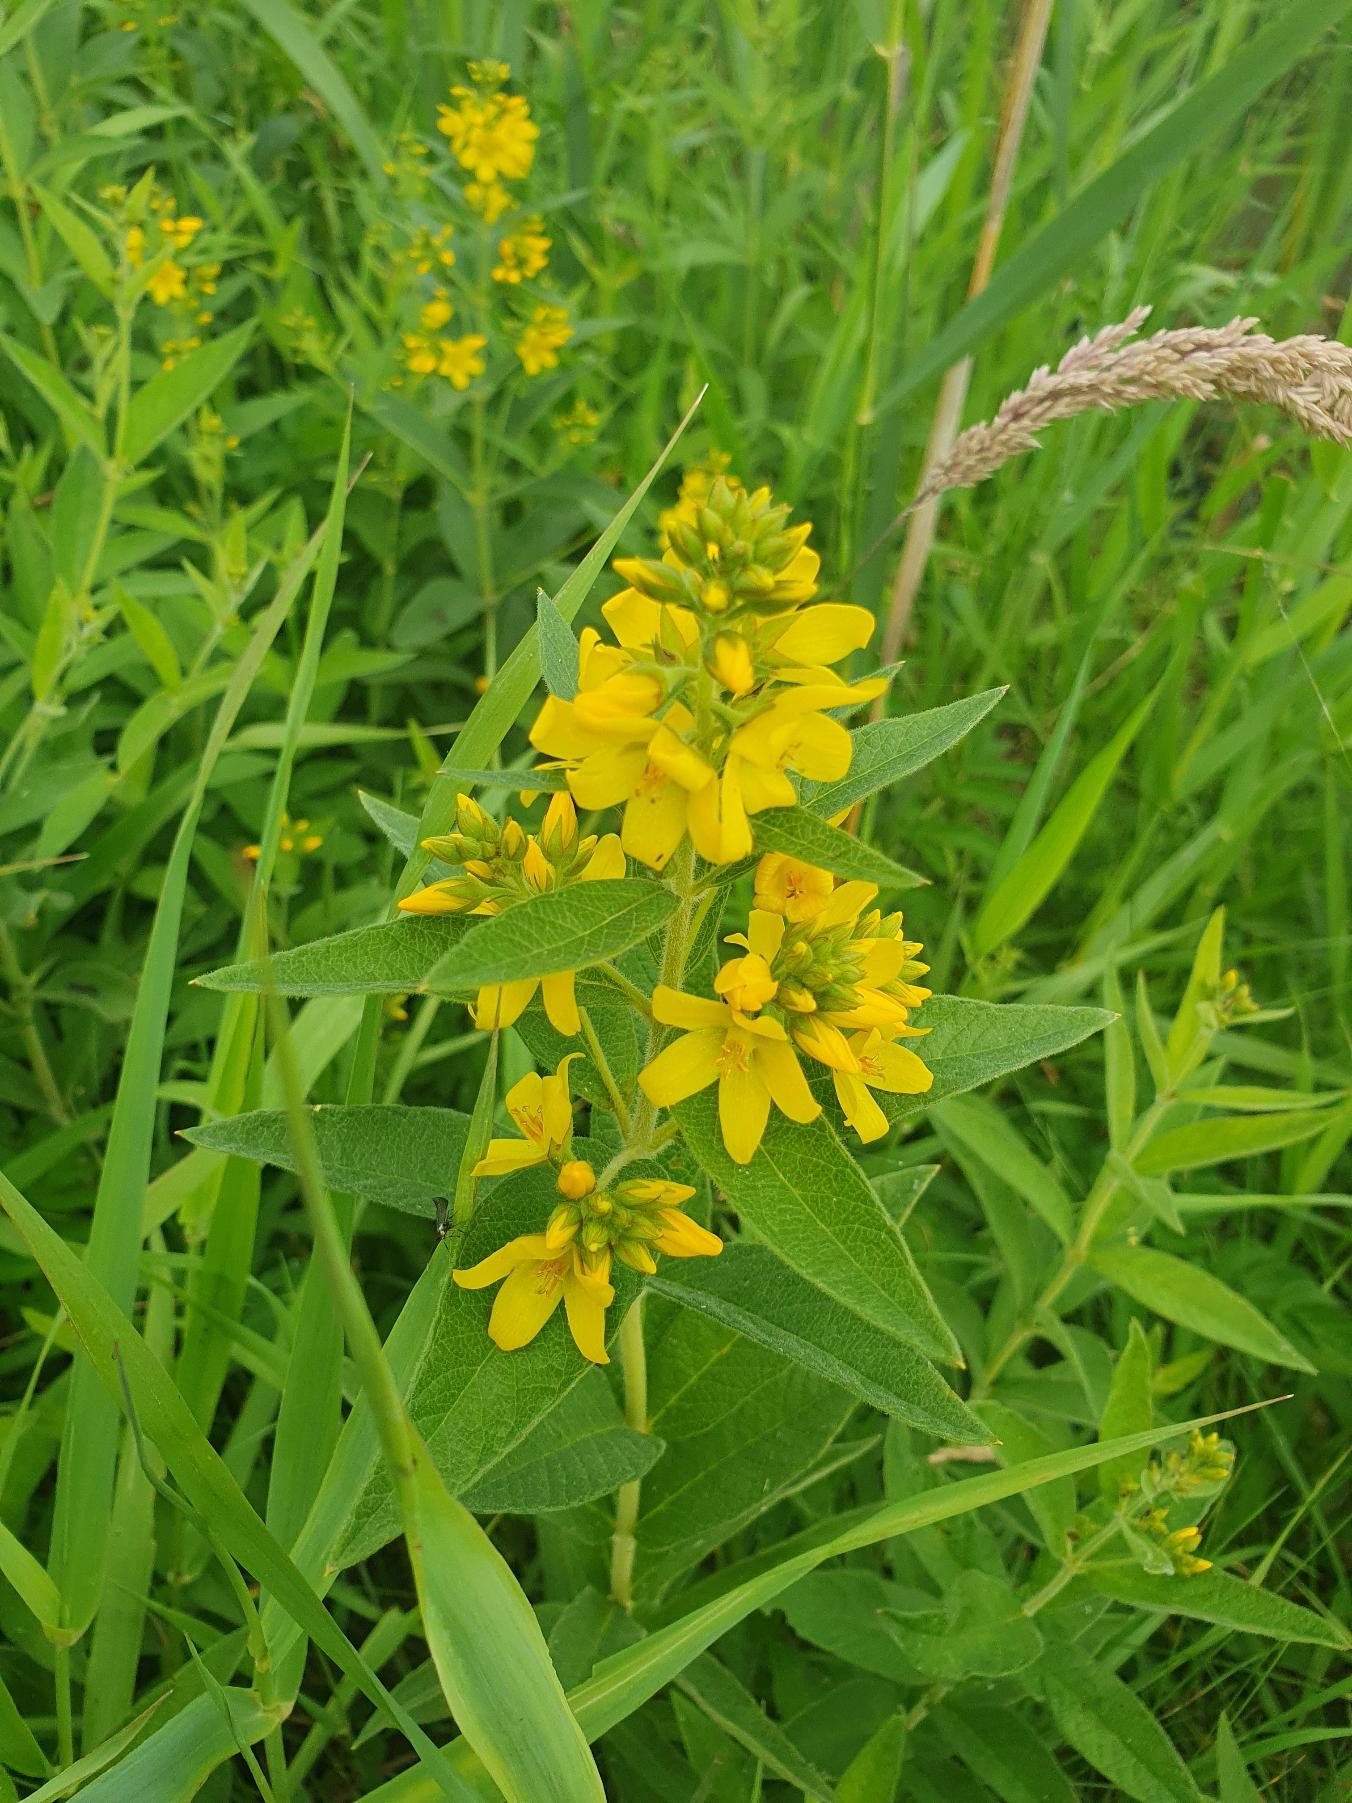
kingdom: Plantae
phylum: Tracheophyta
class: Magnoliopsida
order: Ericales
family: Primulaceae
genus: Lysimachia
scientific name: Lysimachia vulgaris
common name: Almindelig fredløs
